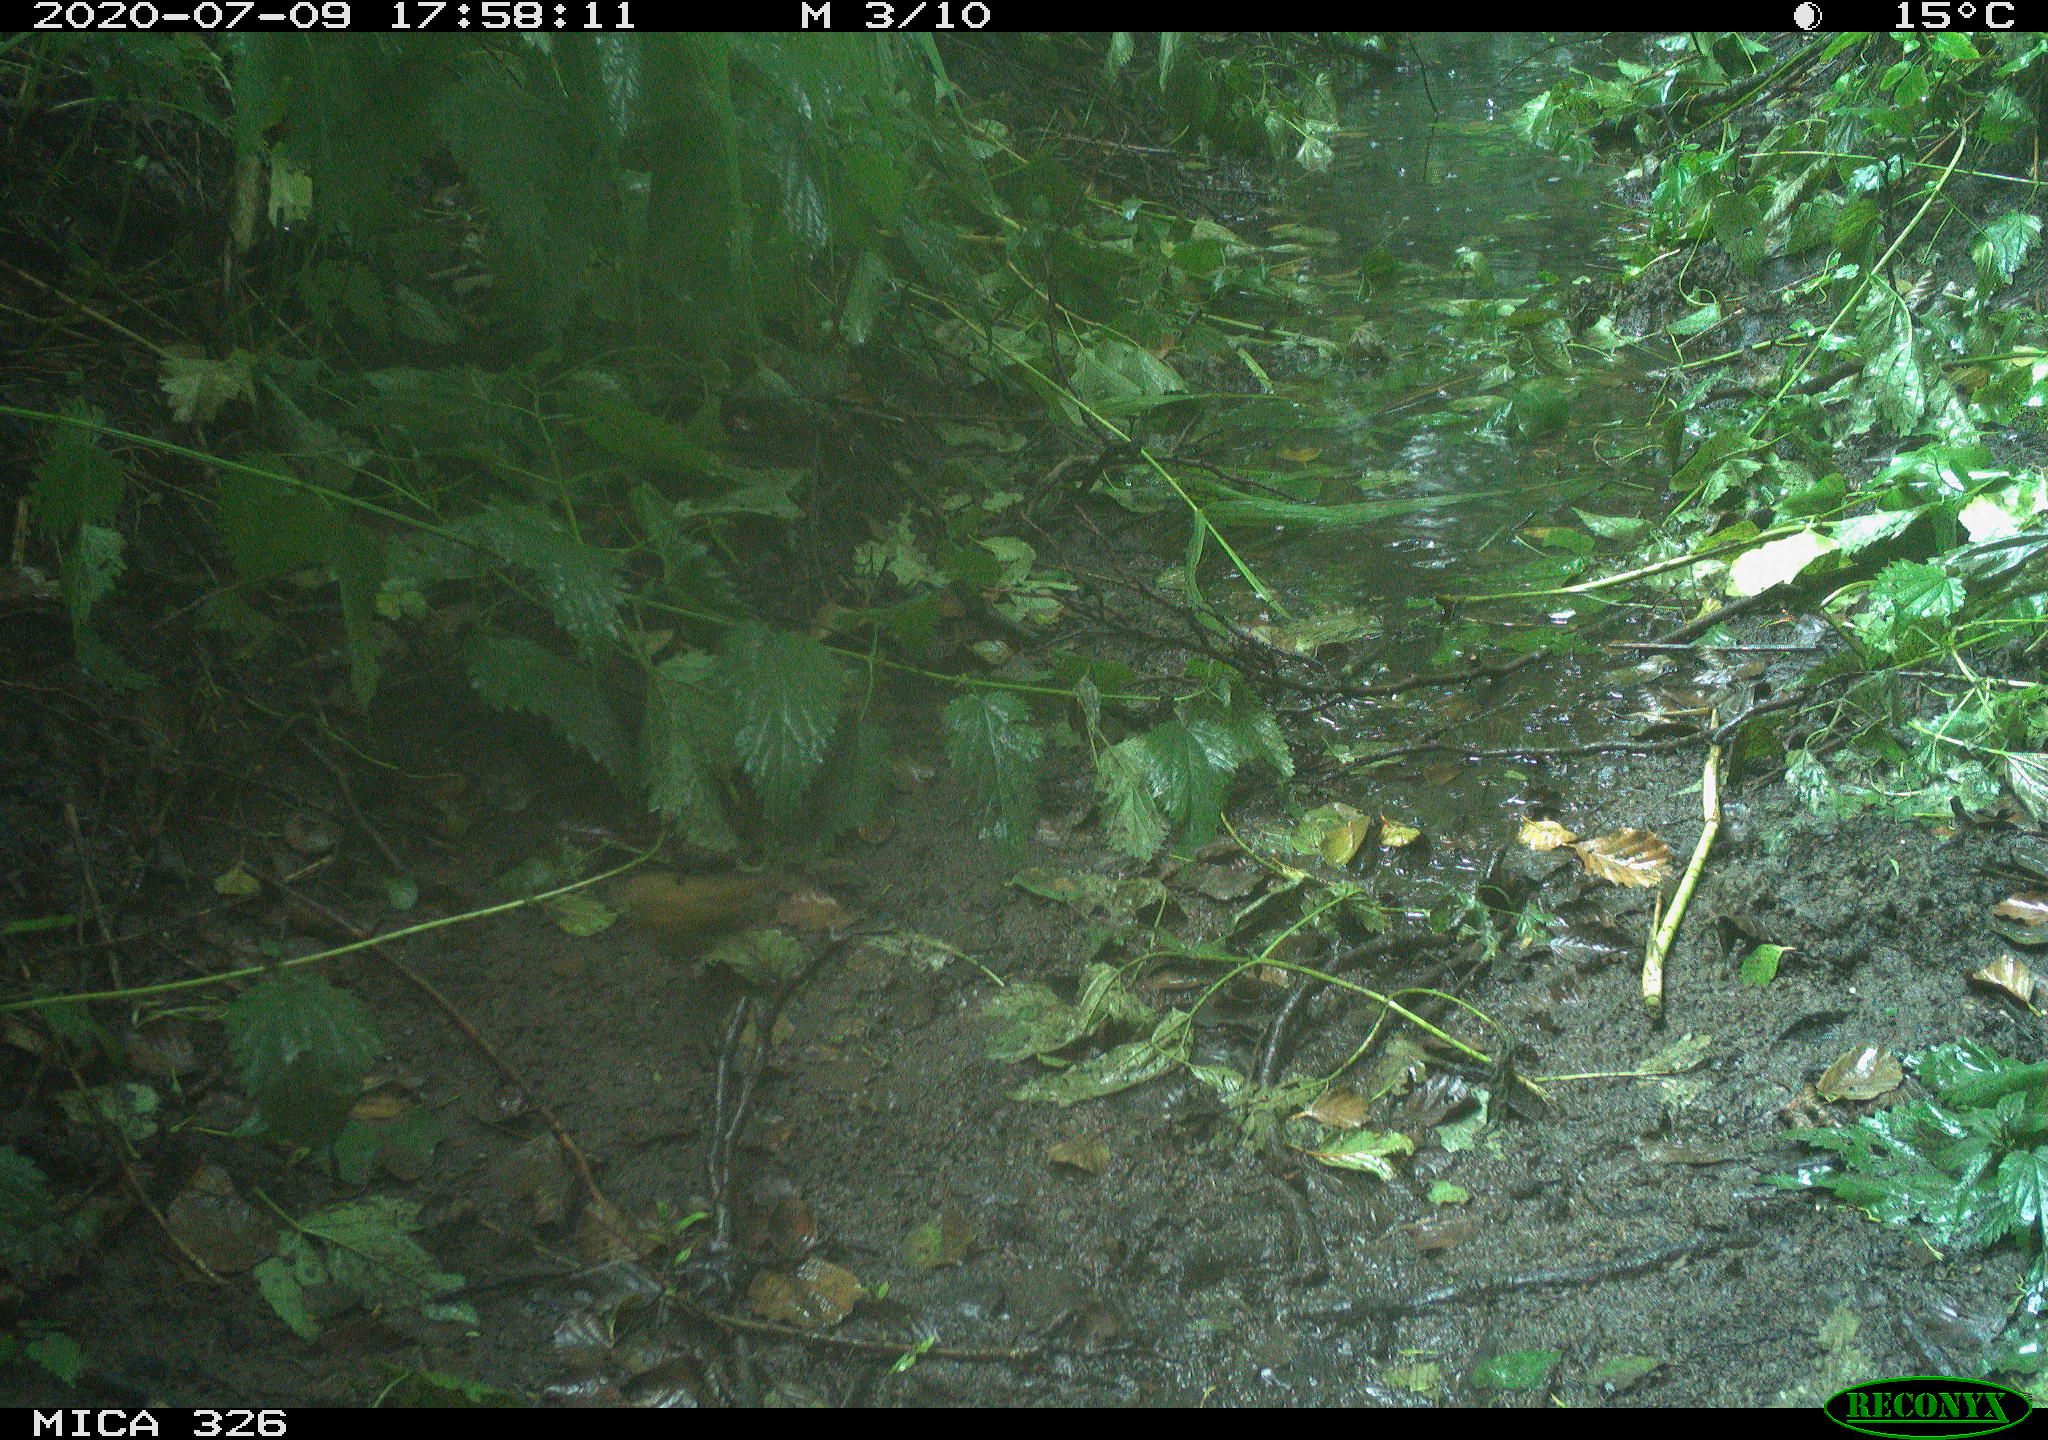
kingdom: Animalia
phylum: Chordata
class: Aves
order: Passeriformes
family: Muscicapidae
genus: Erithacus
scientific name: Erithacus rubecula
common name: European robin
